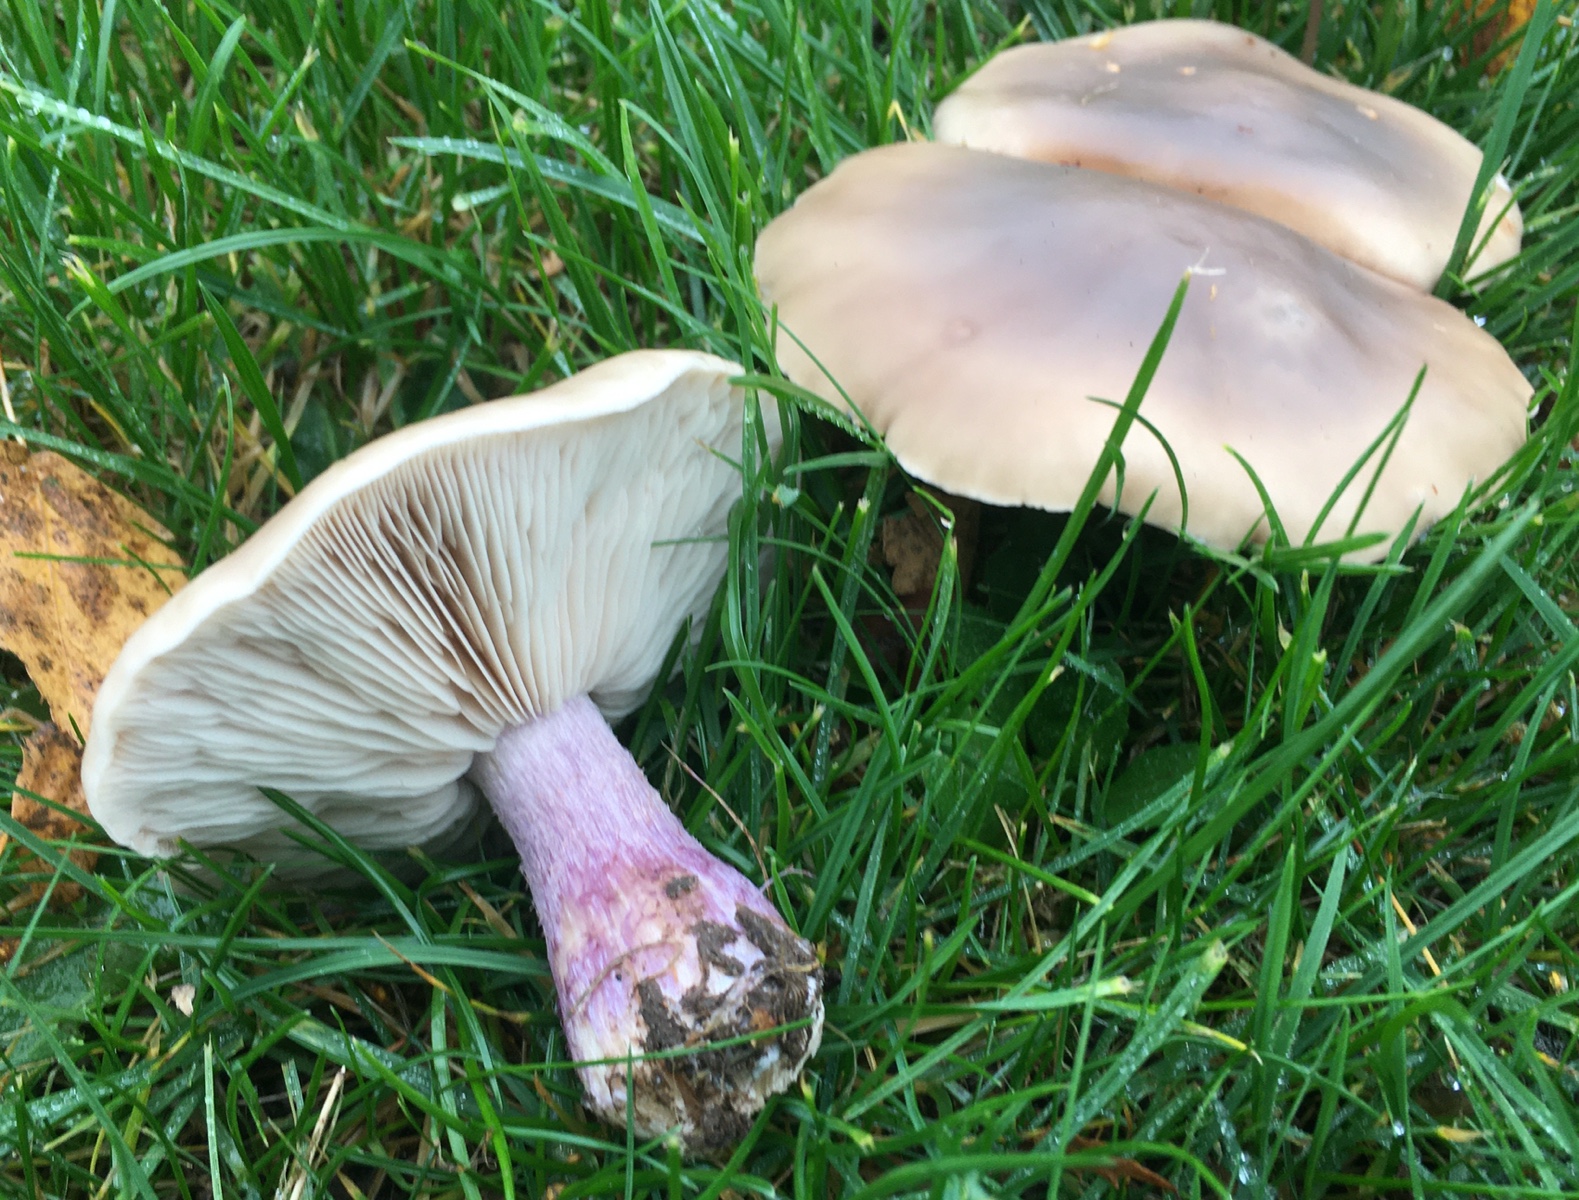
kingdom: Fungi
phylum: Basidiomycota
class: Agaricomycetes
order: Agaricales
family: Tricholomataceae
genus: Lepista
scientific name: Lepista personata
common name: bleg hekseringshat
